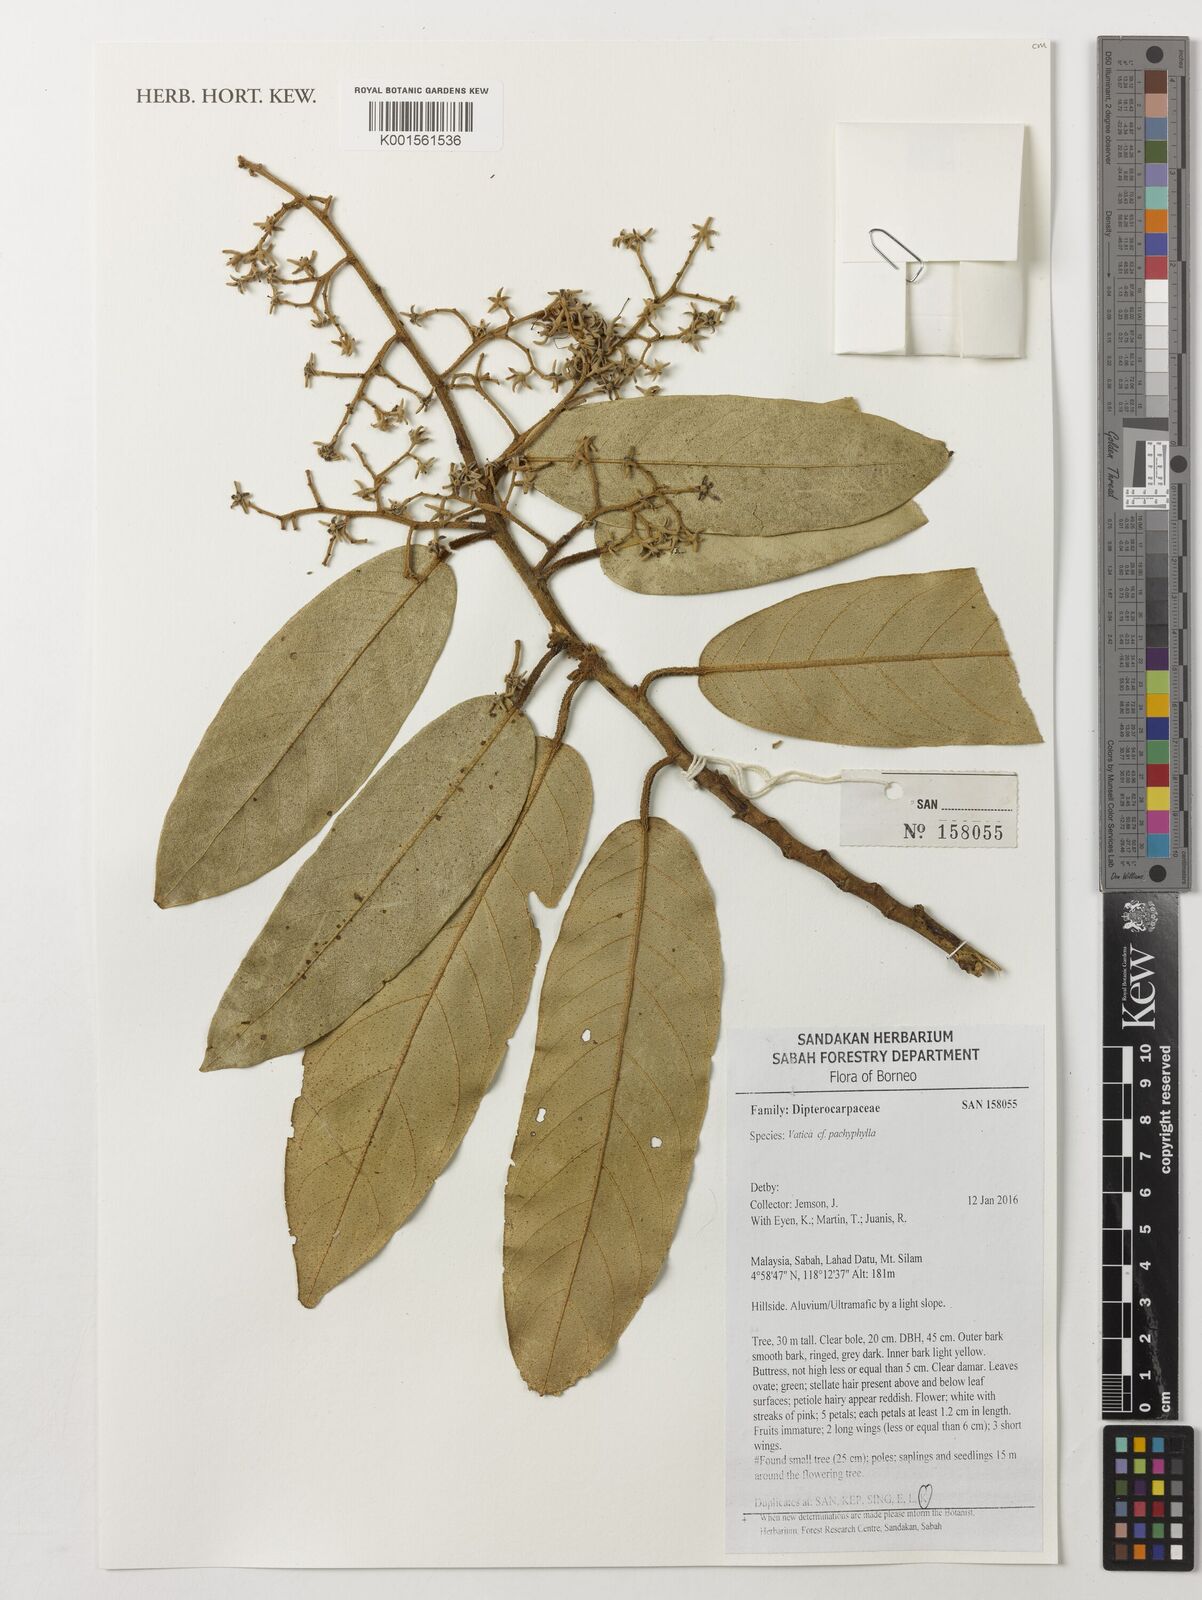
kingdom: Plantae
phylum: Tracheophyta
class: Magnoliopsida
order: Malvales
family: Dipterocarpaceae
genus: Vatica
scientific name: Vatica pachyphylla
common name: Thick-leaf narig
